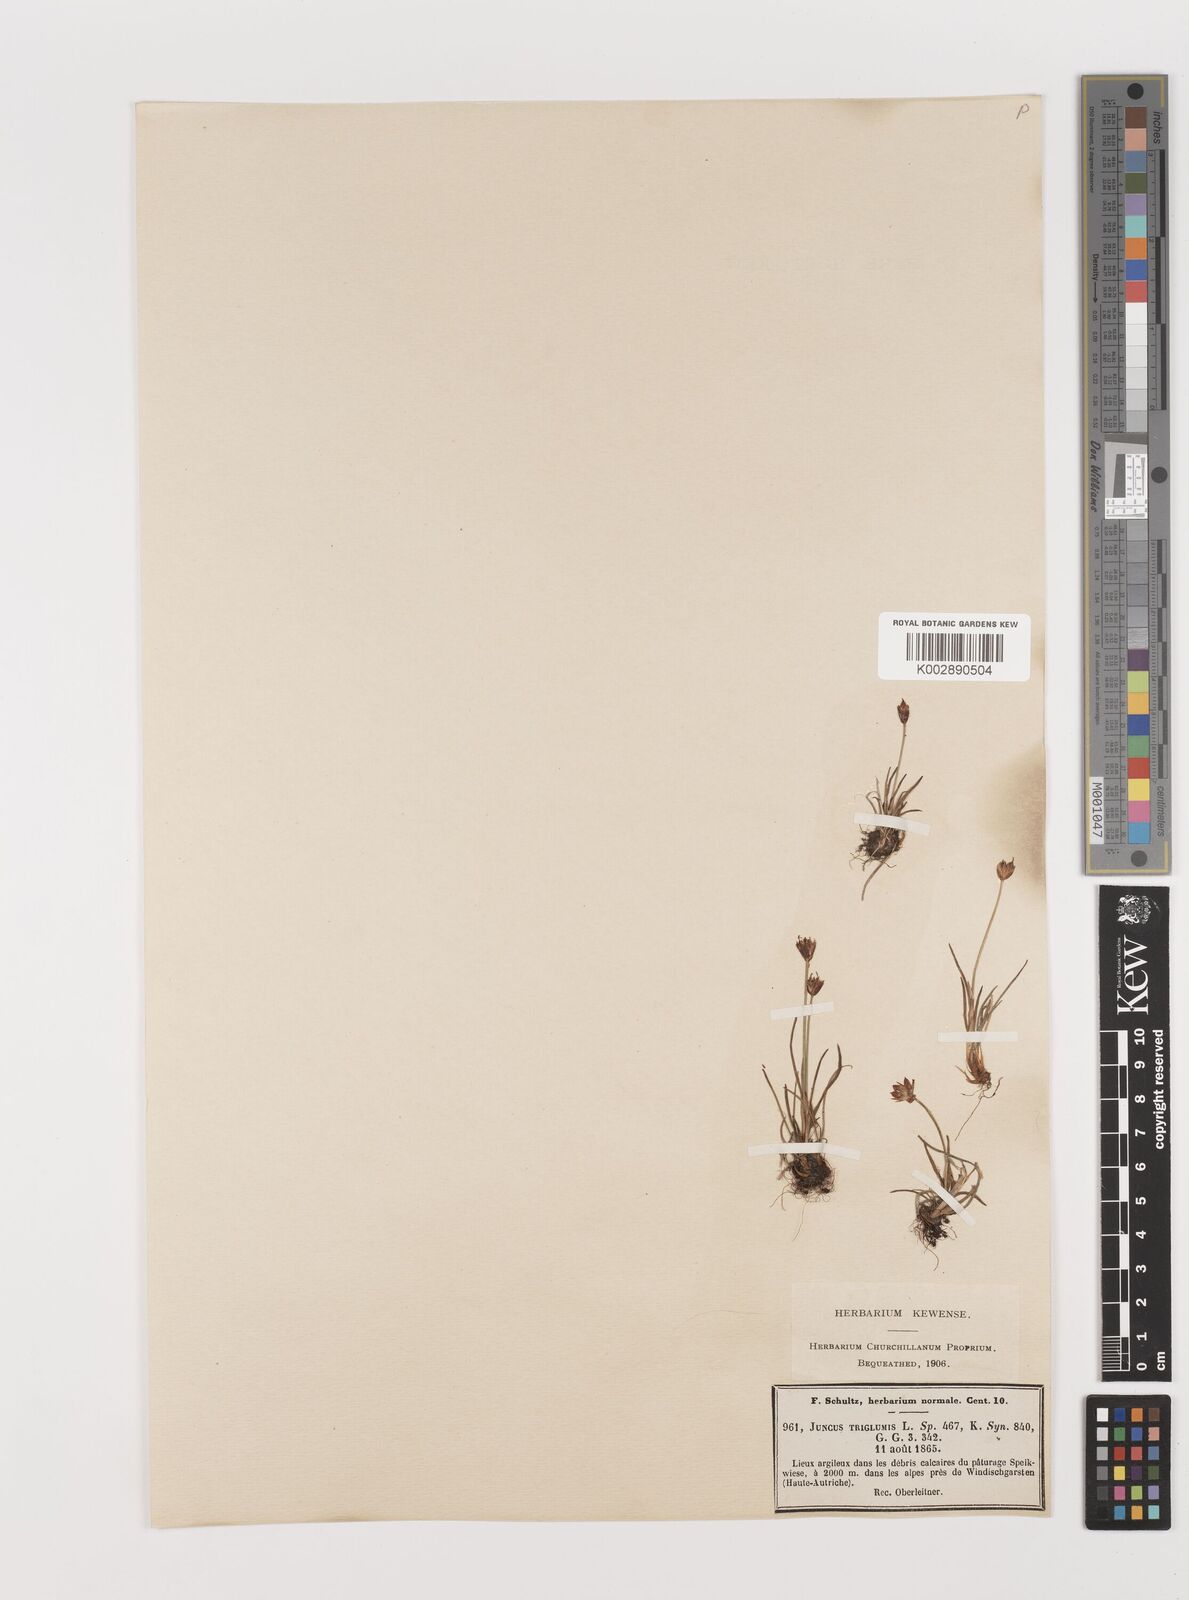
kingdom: Plantae
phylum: Tracheophyta
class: Liliopsida
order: Poales
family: Juncaceae
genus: Juncus
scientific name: Juncus triglumis
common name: Three-flowered rush
